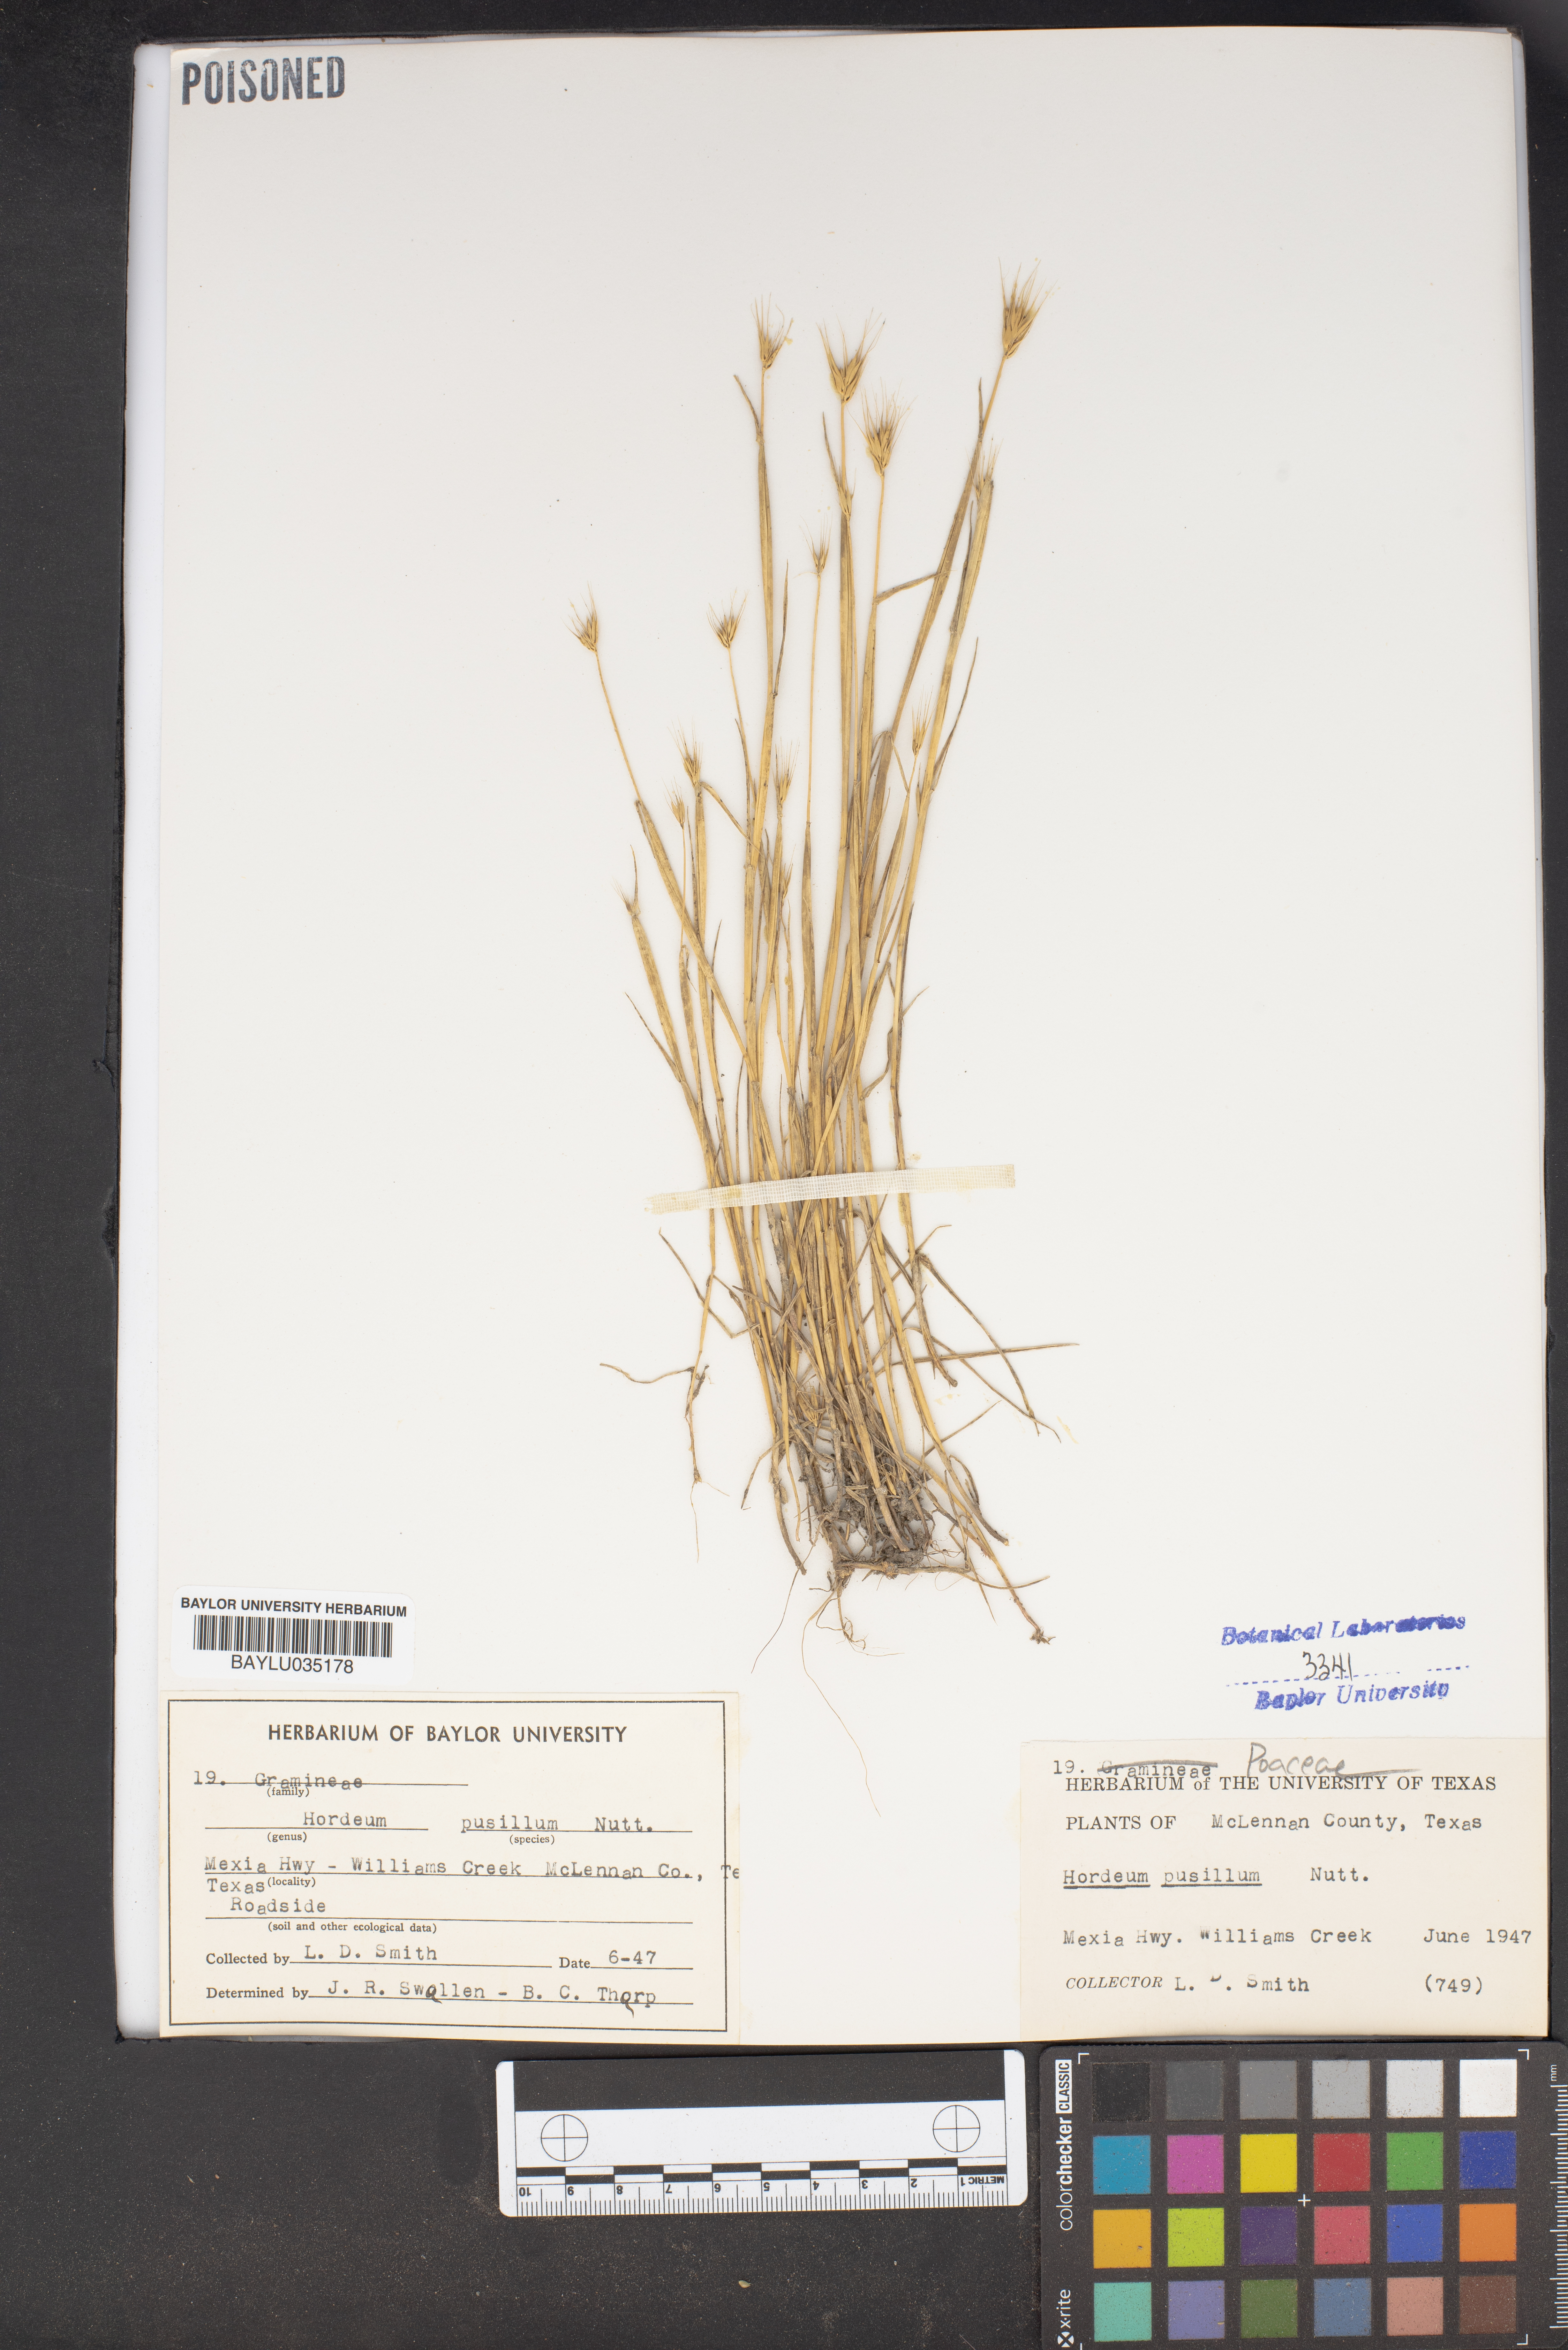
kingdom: Plantae
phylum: Tracheophyta
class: Liliopsida
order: Poales
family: Poaceae
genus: Hordeum
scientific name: Hordeum pusillum
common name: Little barley
